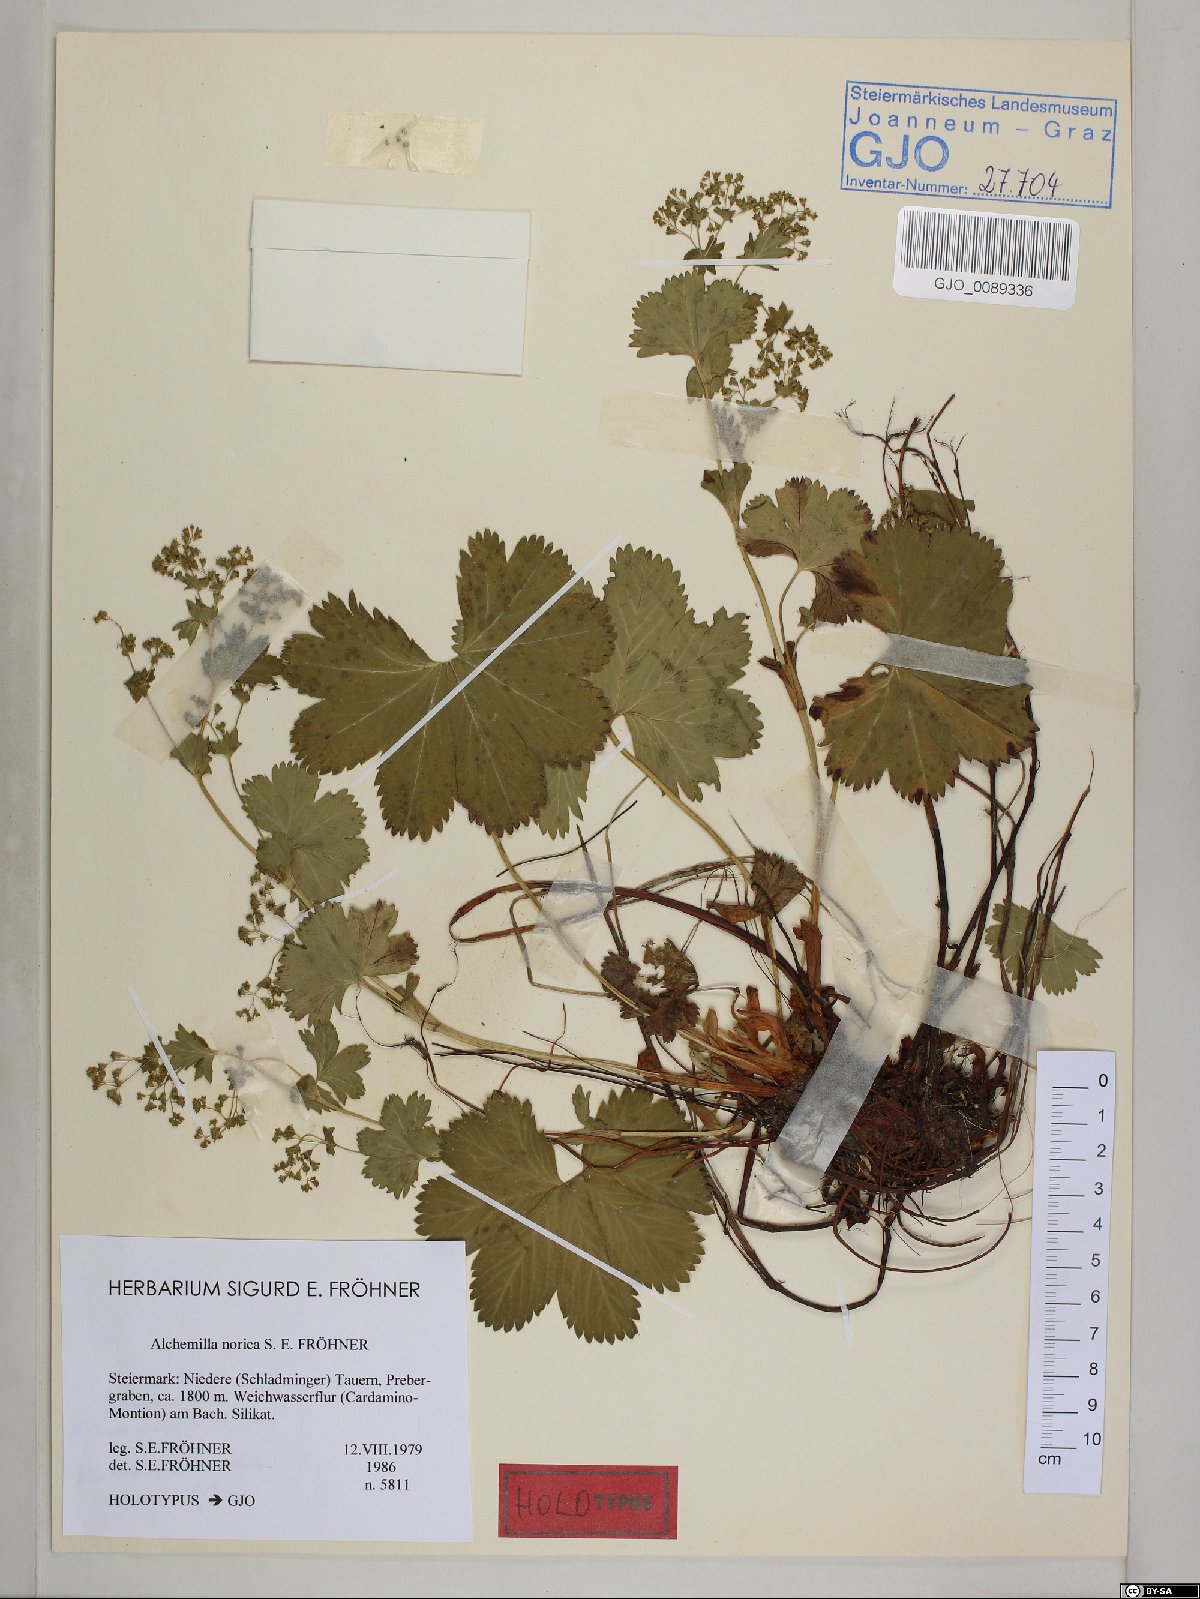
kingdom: Plantae
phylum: Tracheophyta
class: Magnoliopsida
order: Rosales
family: Rosaceae
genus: Alchemilla
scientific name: Alchemilla norica
